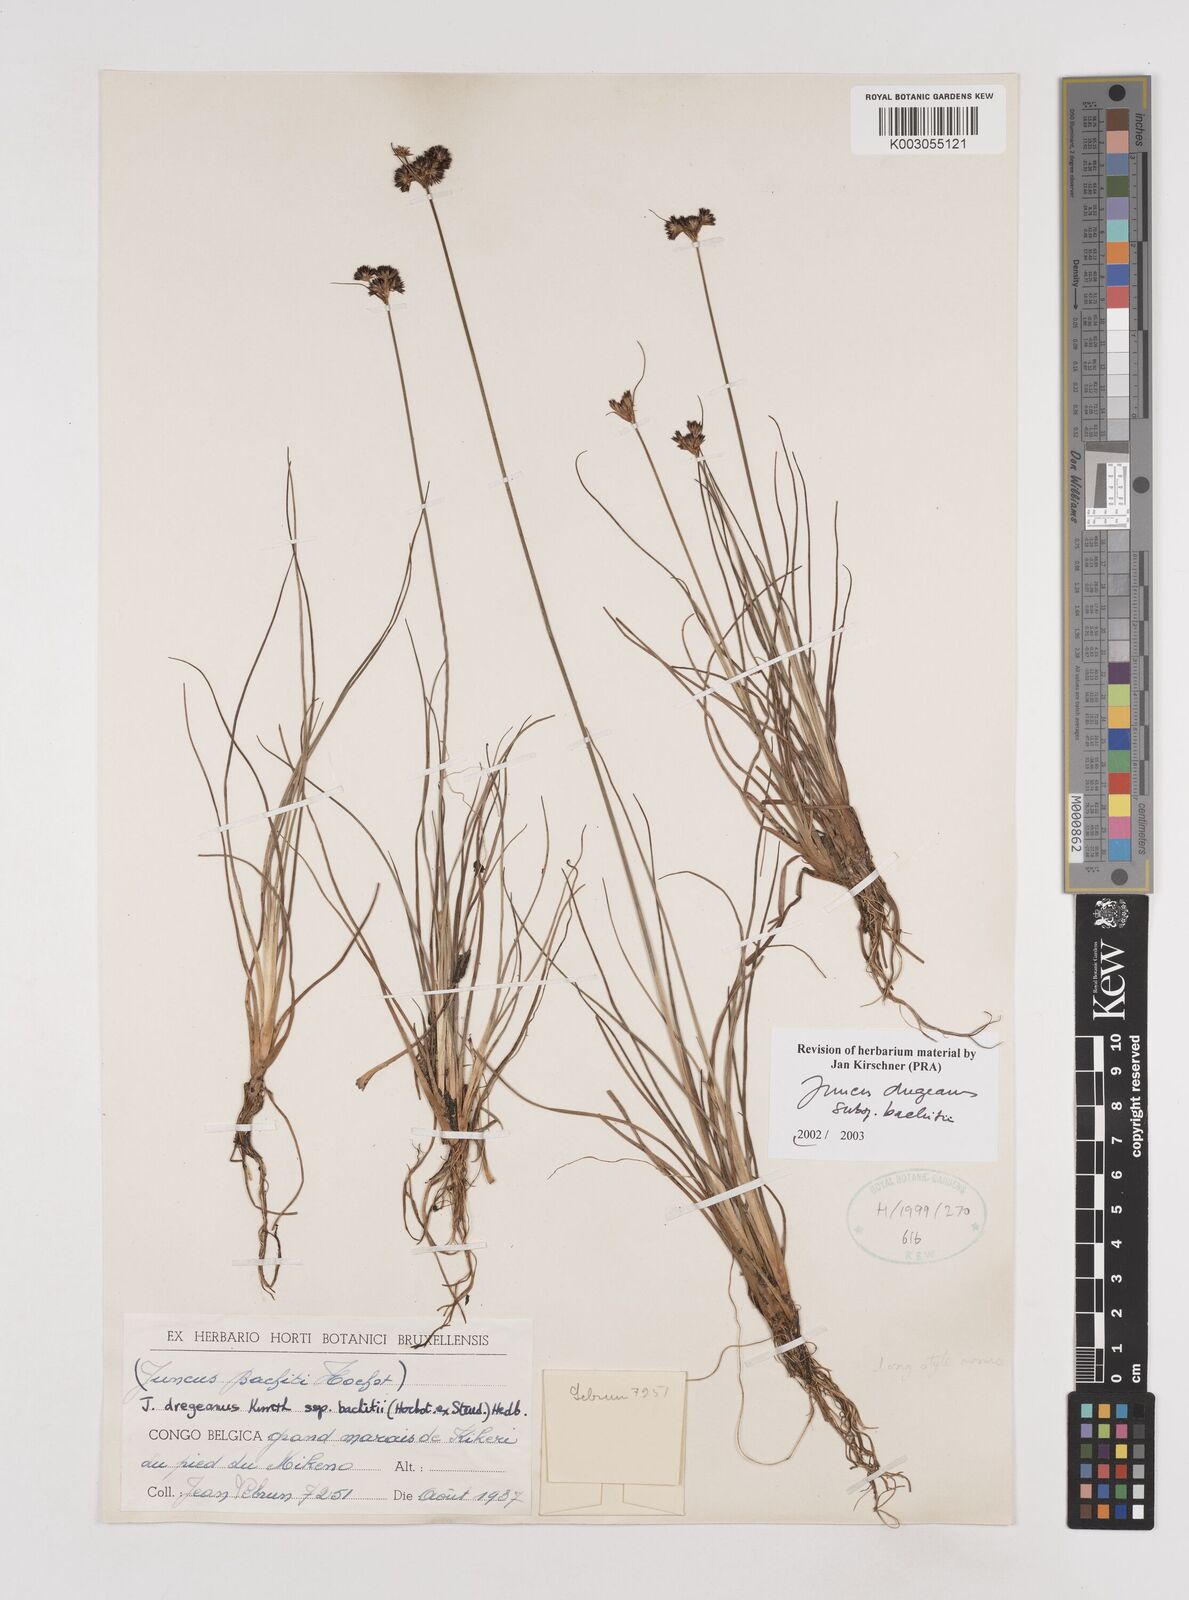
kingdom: Plantae
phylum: Tracheophyta
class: Liliopsida
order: Poales
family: Juncaceae
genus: Juncus
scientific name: Juncus dregeanus
